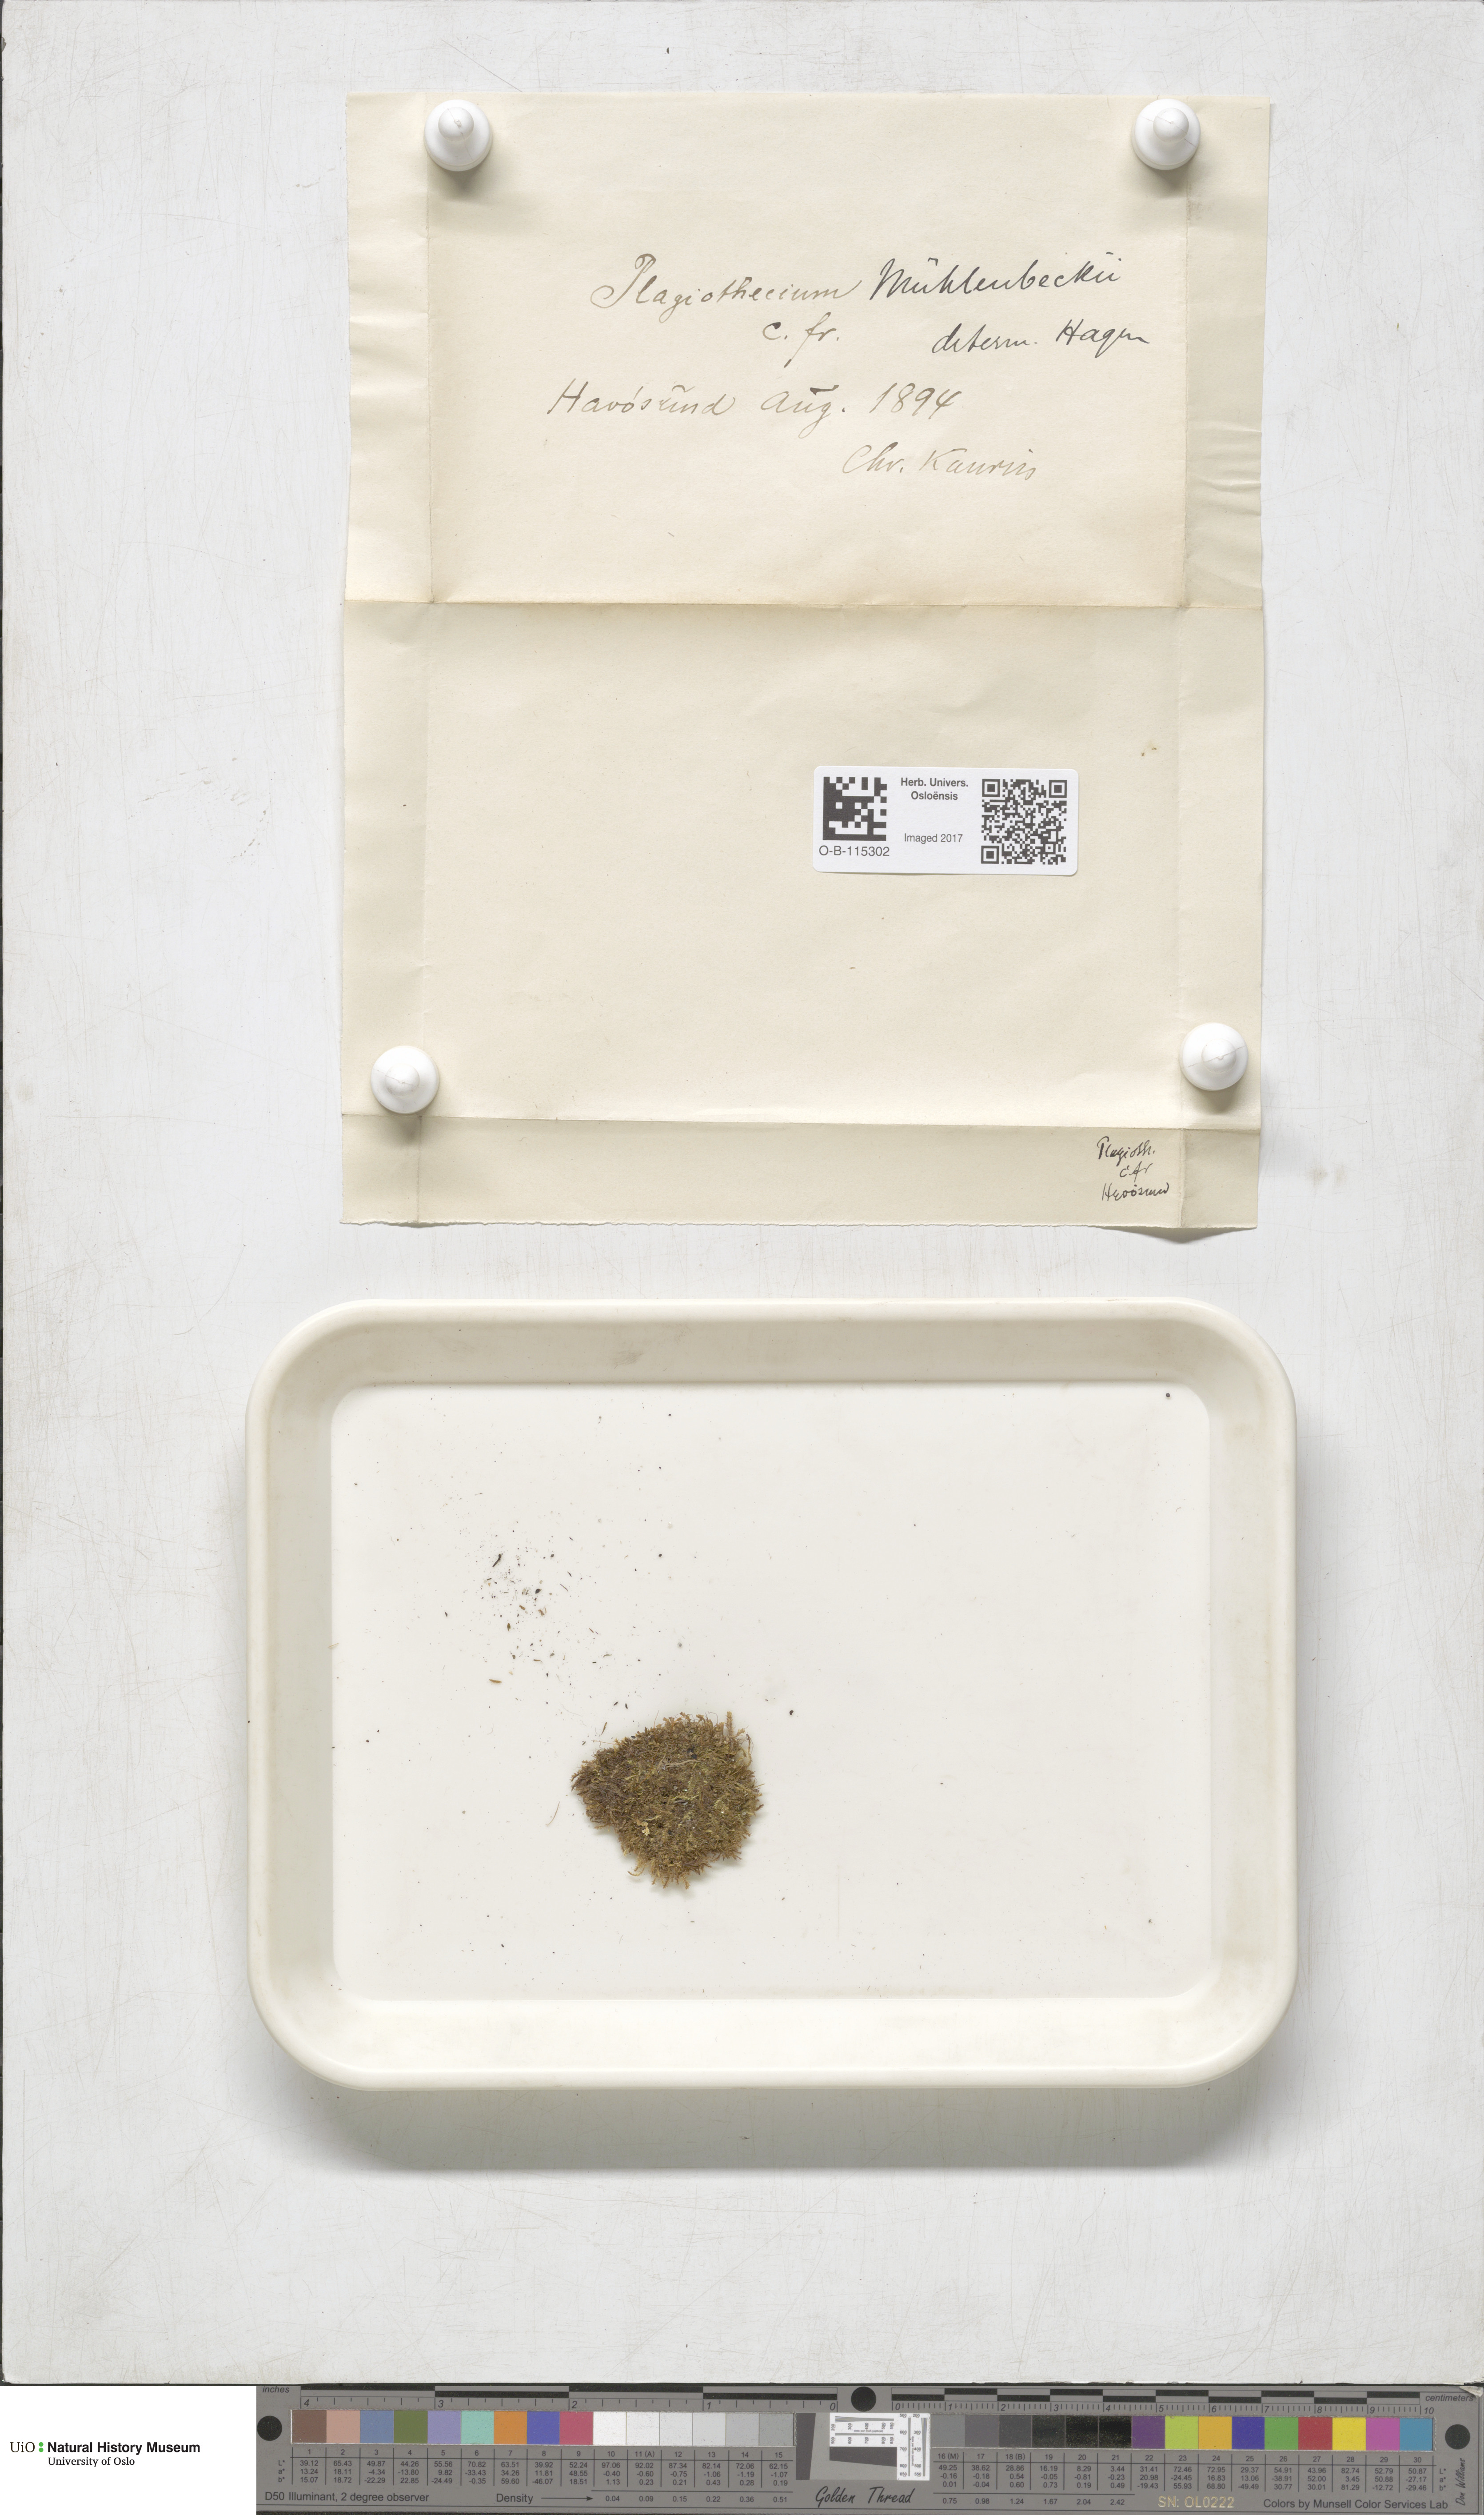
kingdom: Plantae
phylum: Bryophyta
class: Bryopsida
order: Hypnales
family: Plagiotheciaceae
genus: Herzogiella
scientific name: Herzogiella striatella
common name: Muhlenbeck's feather-moss
